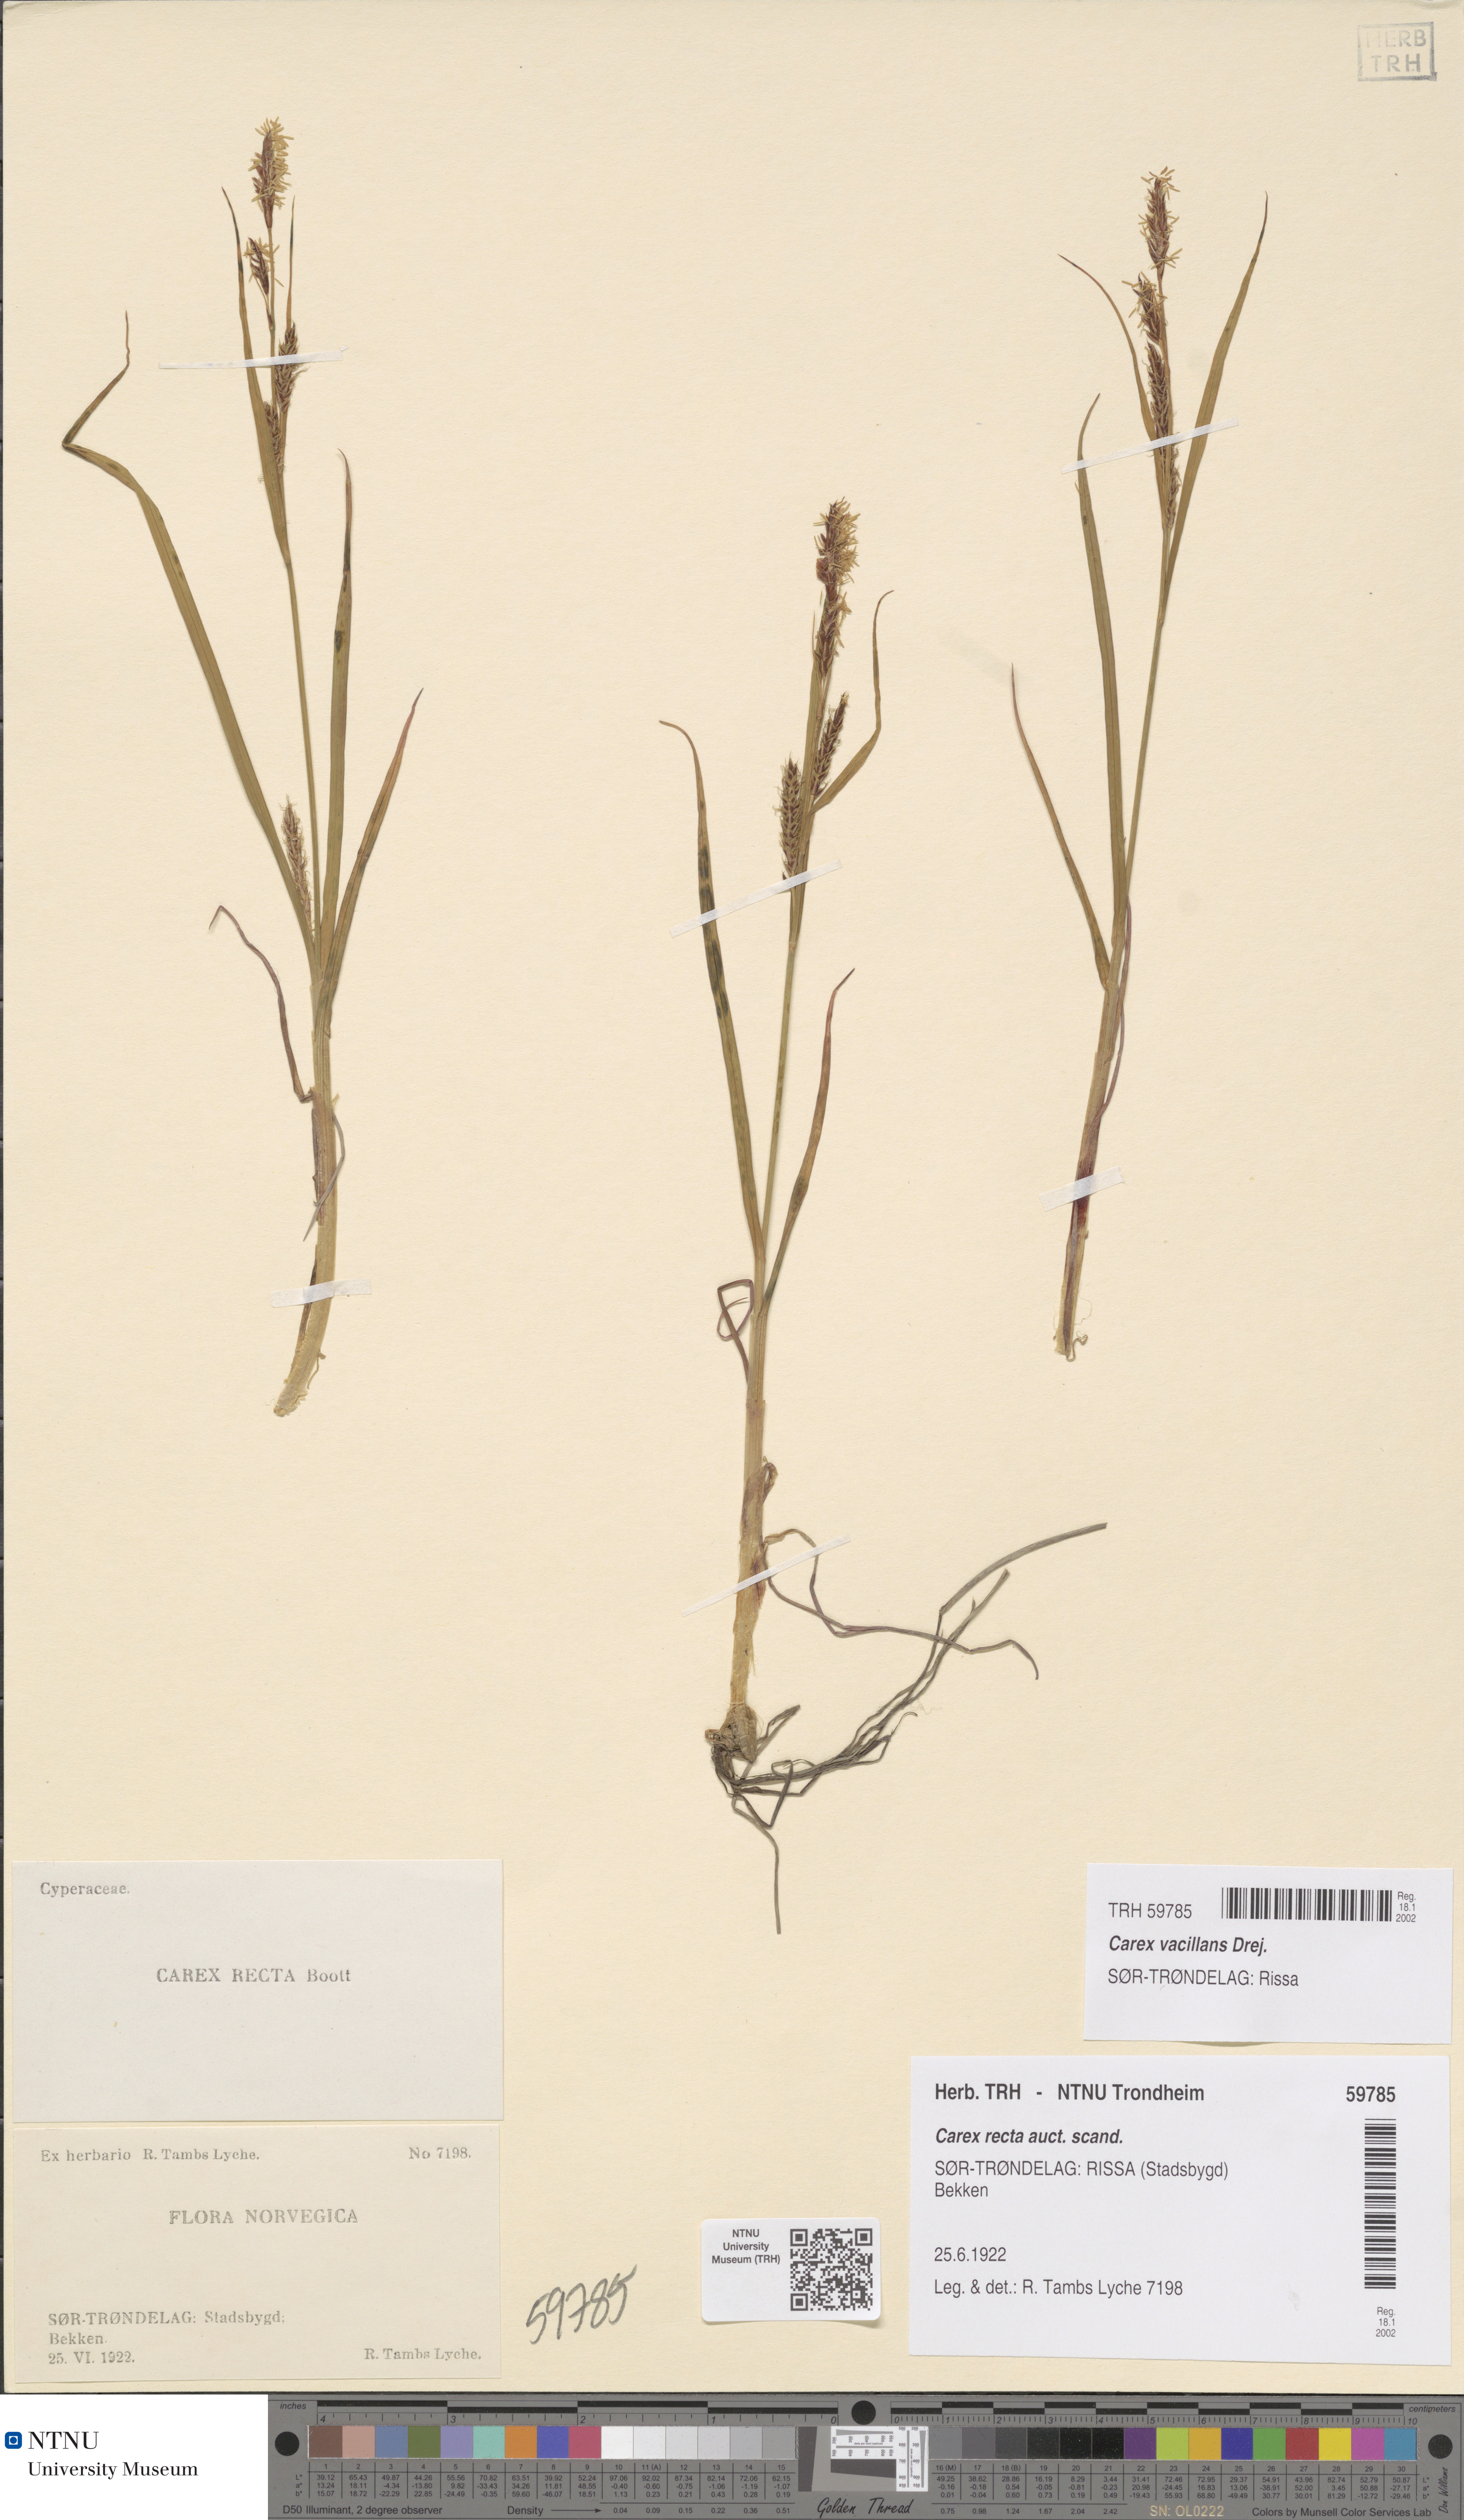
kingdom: Plantae
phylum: Tracheophyta
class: Liliopsida
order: Poales
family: Cyperaceae
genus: Carex
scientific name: Carex vacillans
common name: Sedge
